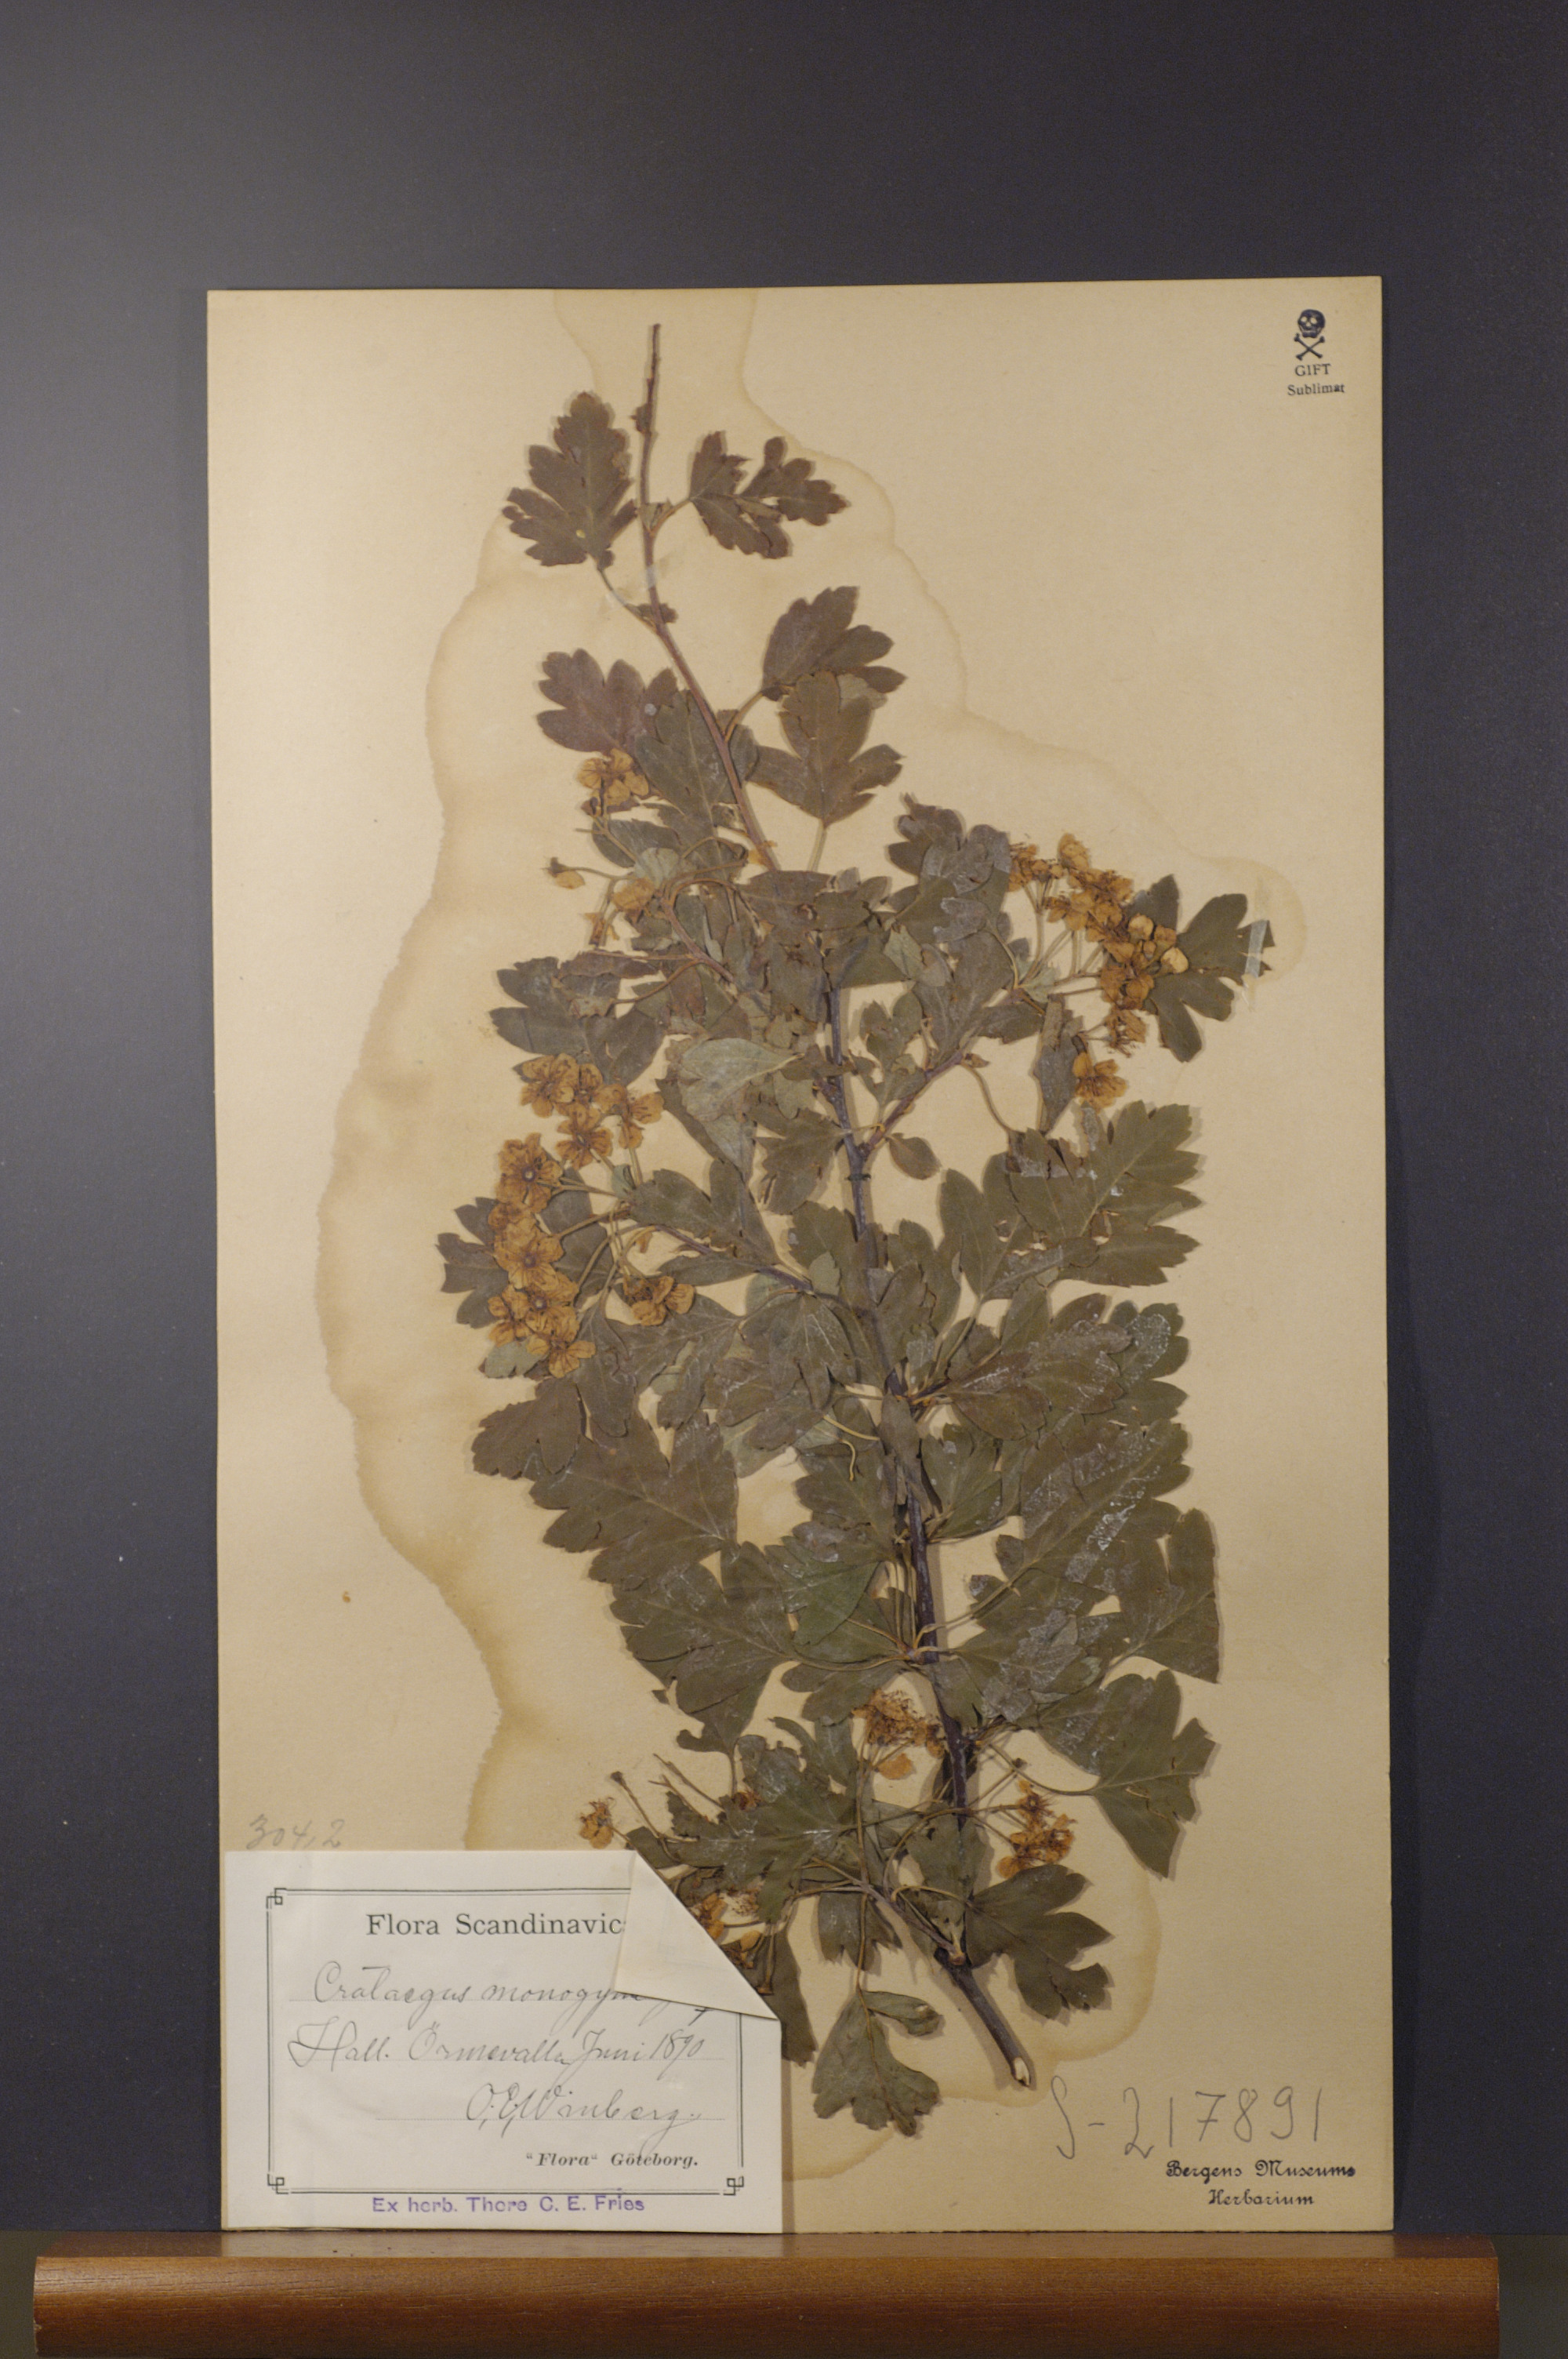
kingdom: Plantae
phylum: Tracheophyta
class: Magnoliopsida
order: Rosales
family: Rosaceae
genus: Crataegus
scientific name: Crataegus monogyna
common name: Hawthorn
